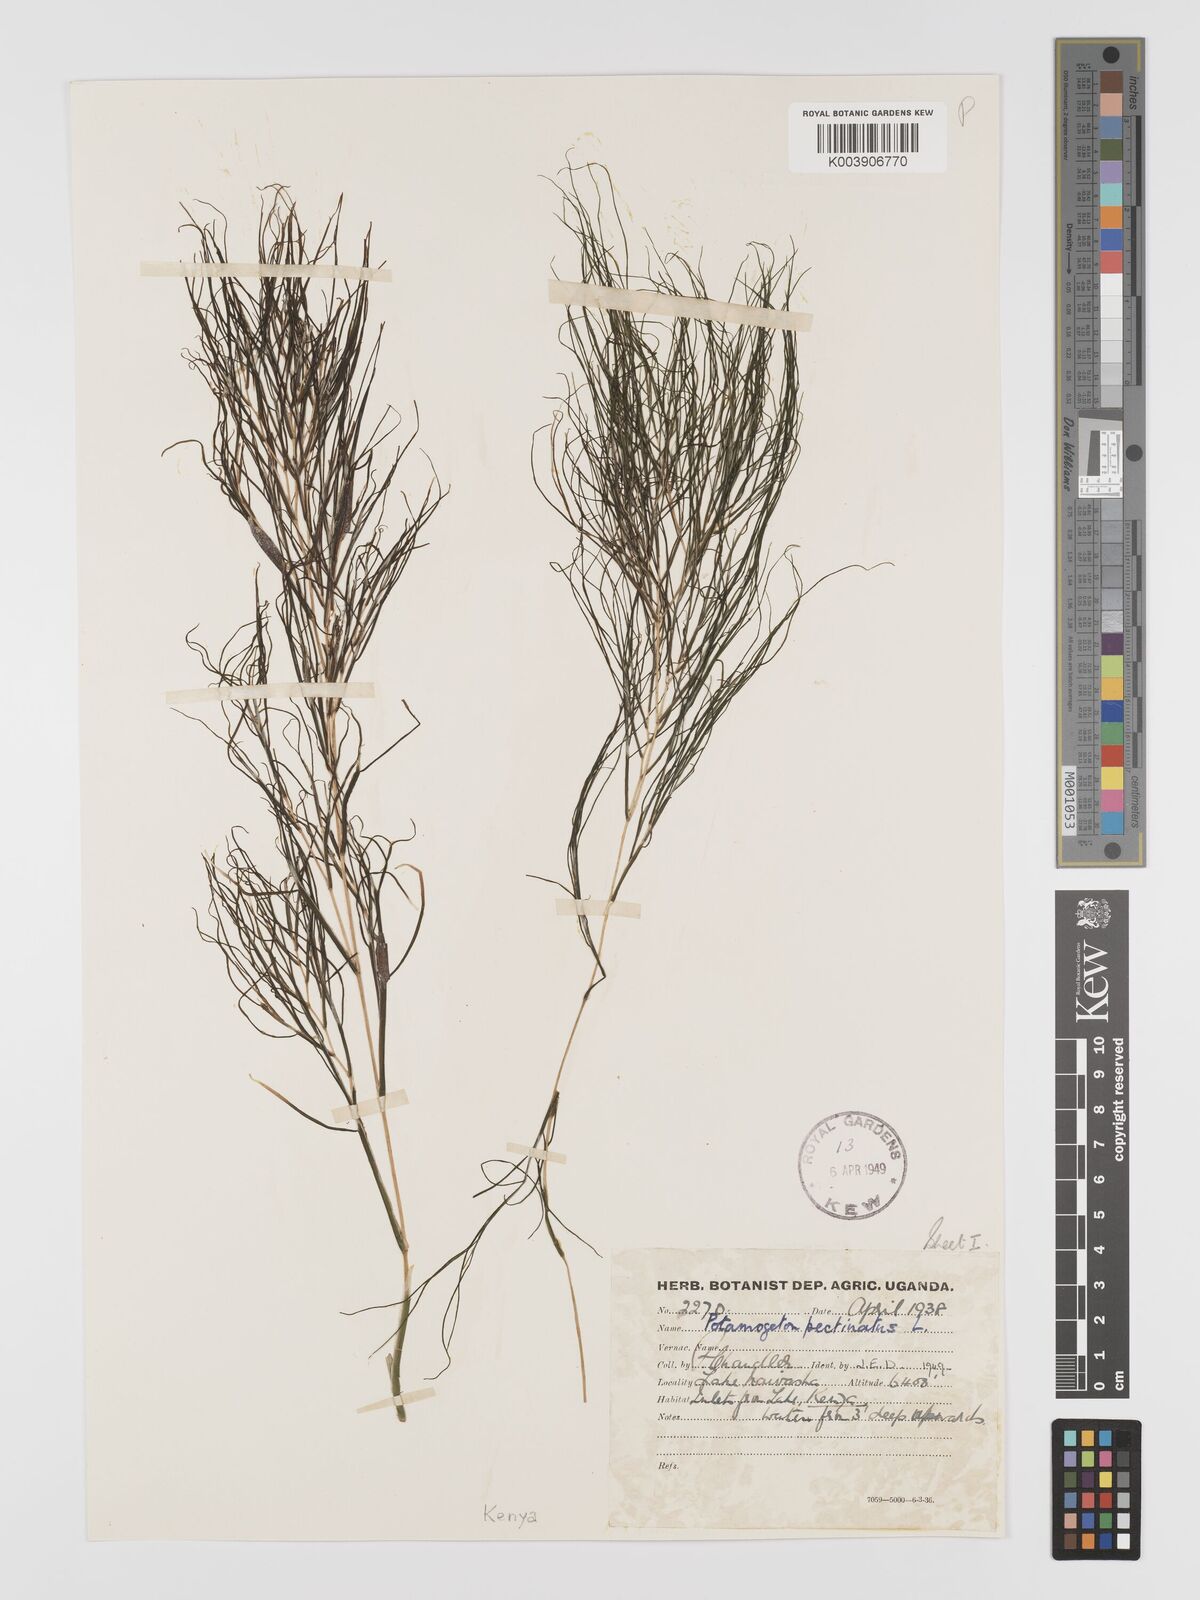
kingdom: Plantae
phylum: Tracheophyta
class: Liliopsida
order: Alismatales
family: Potamogetonaceae
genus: Stuckenia
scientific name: Stuckenia pectinata
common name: Sago pondweed
